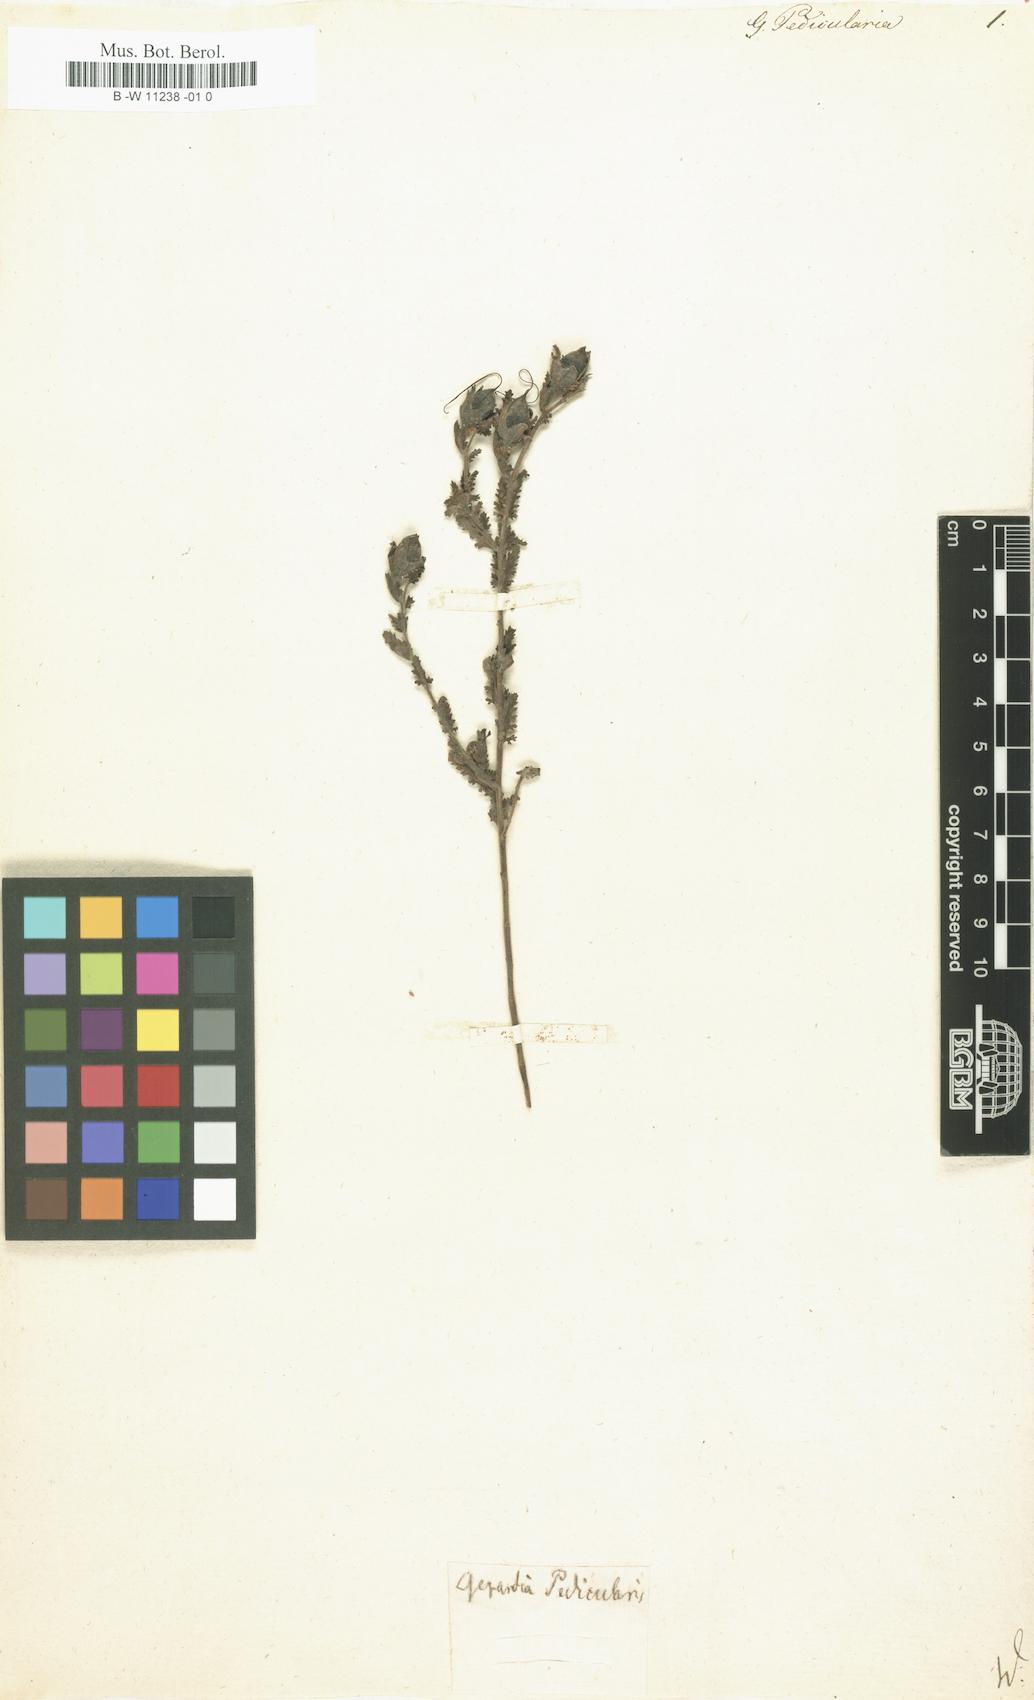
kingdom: Plantae
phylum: Tracheophyta
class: Magnoliopsida
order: Lamiales
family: Orobanchaceae
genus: Aureolaria
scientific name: Aureolaria pedicularia
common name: Annual false foxglove
